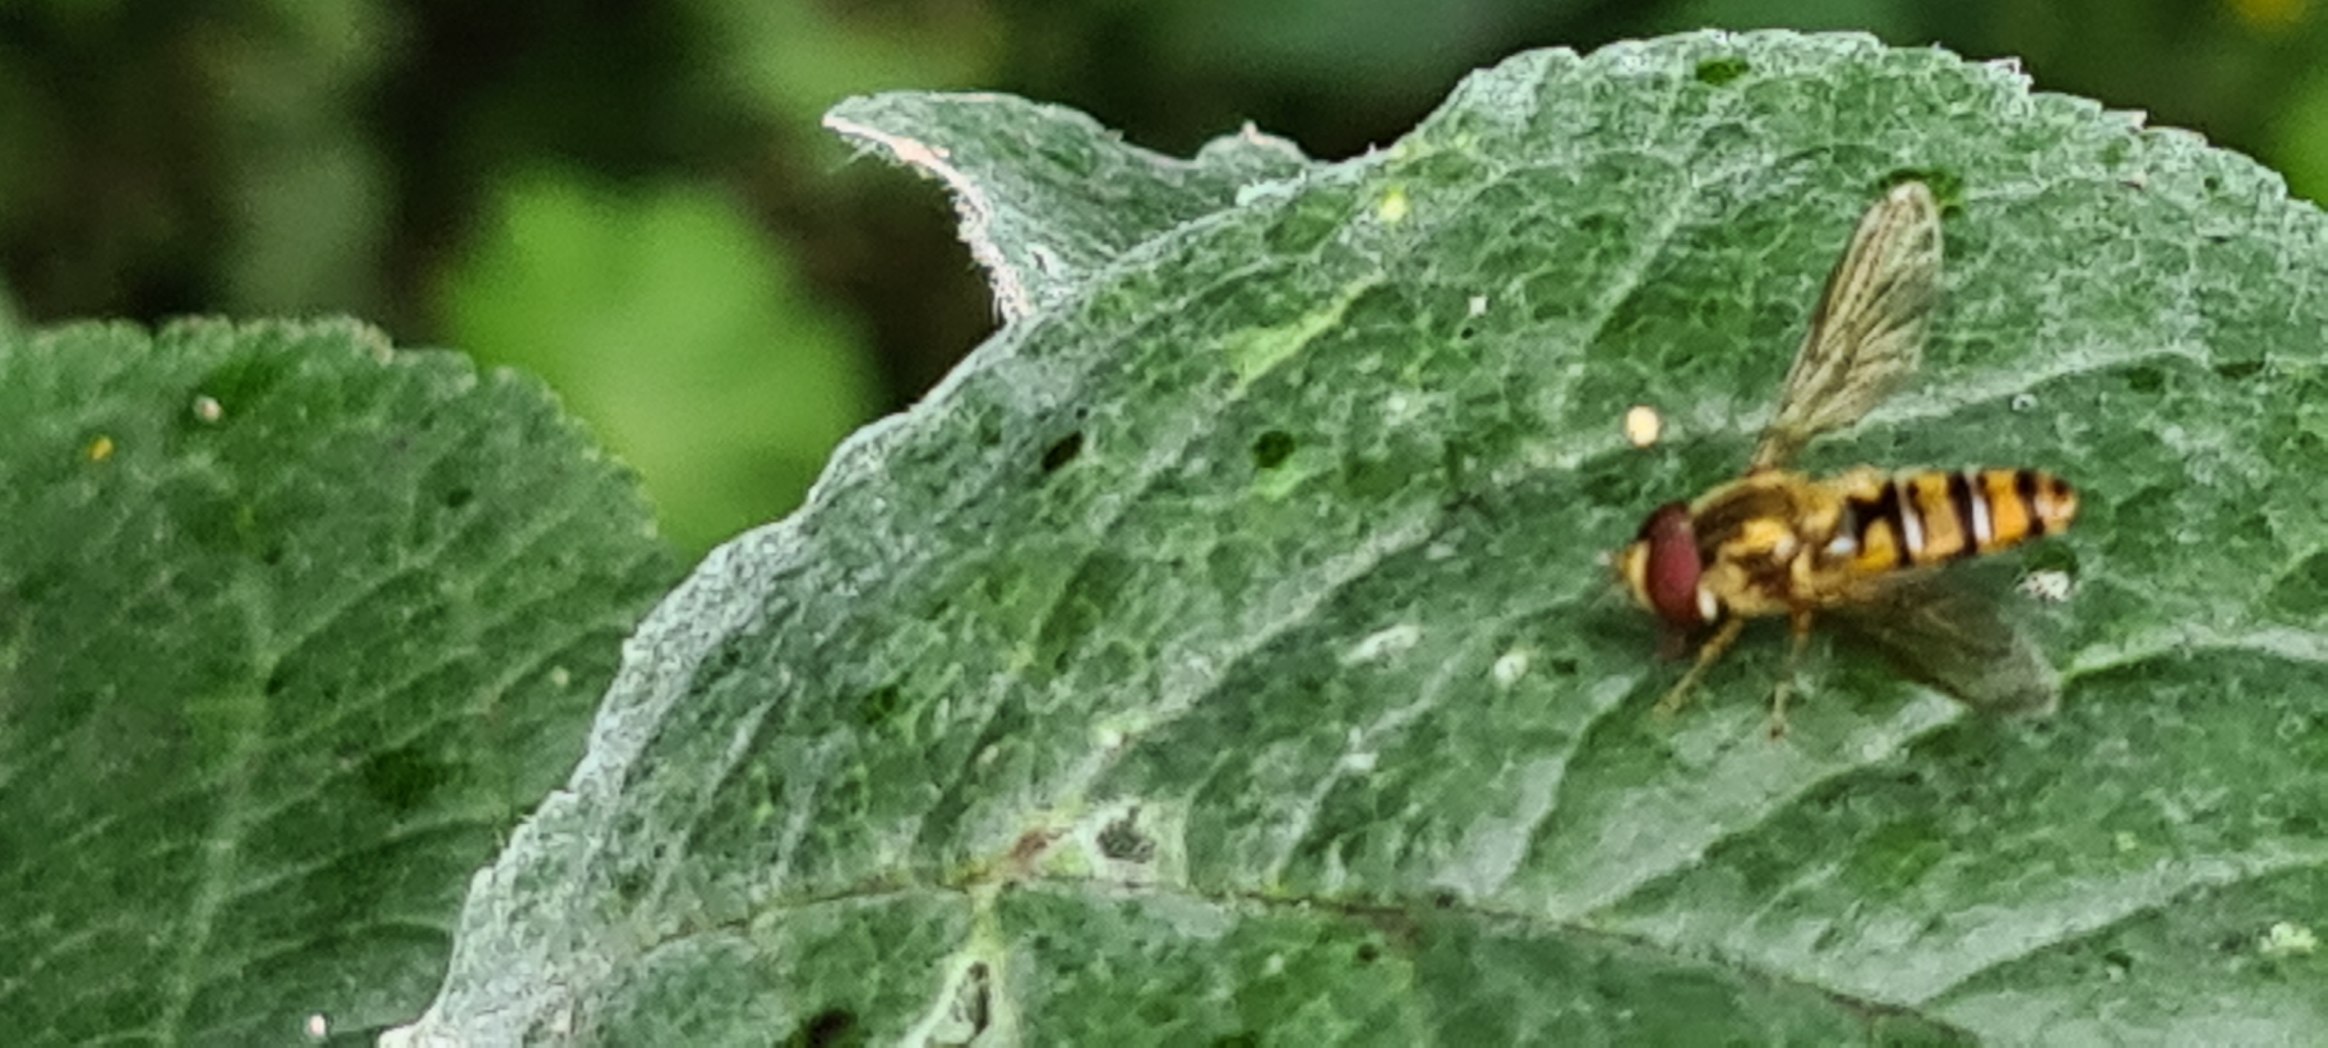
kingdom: Animalia
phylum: Arthropoda
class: Insecta
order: Diptera
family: Syrphidae
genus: Episyrphus
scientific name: Episyrphus balteatus
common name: Dobbeltbåndet svirreflue
